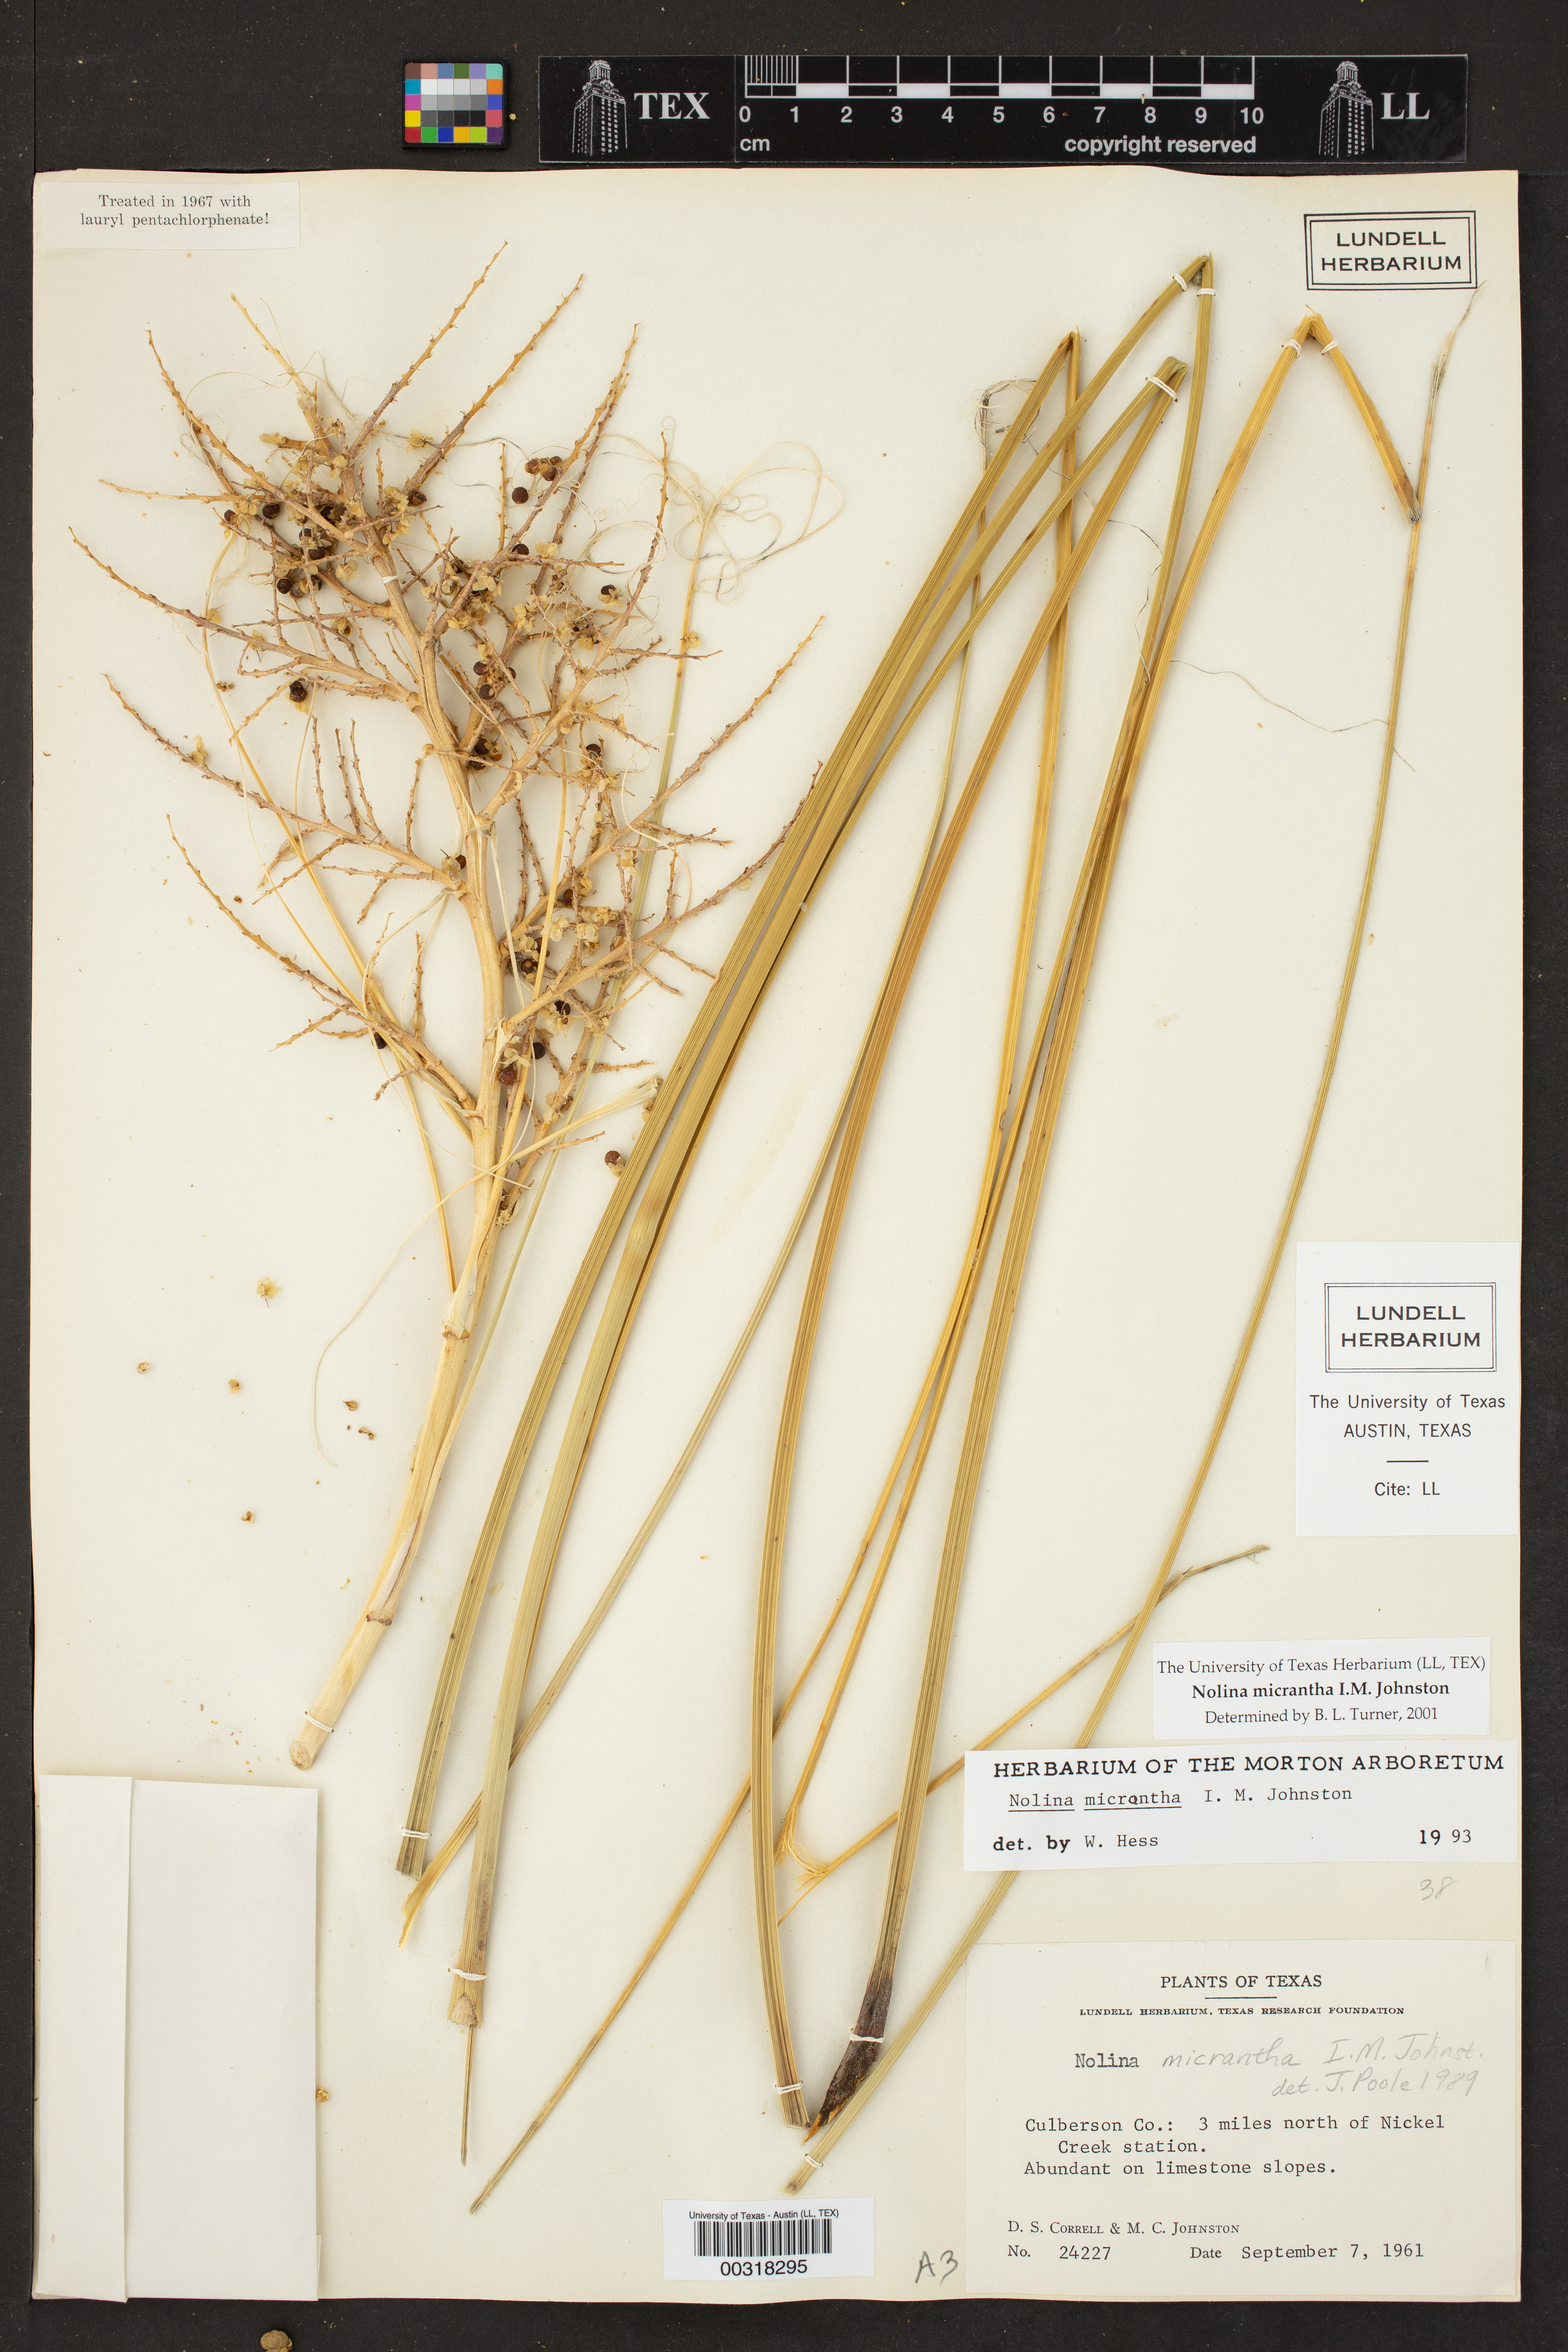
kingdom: Plantae
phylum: Tracheophyta
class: Liliopsida
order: Asparagales
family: Asparagaceae
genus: Nolina
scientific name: Nolina micrantha
